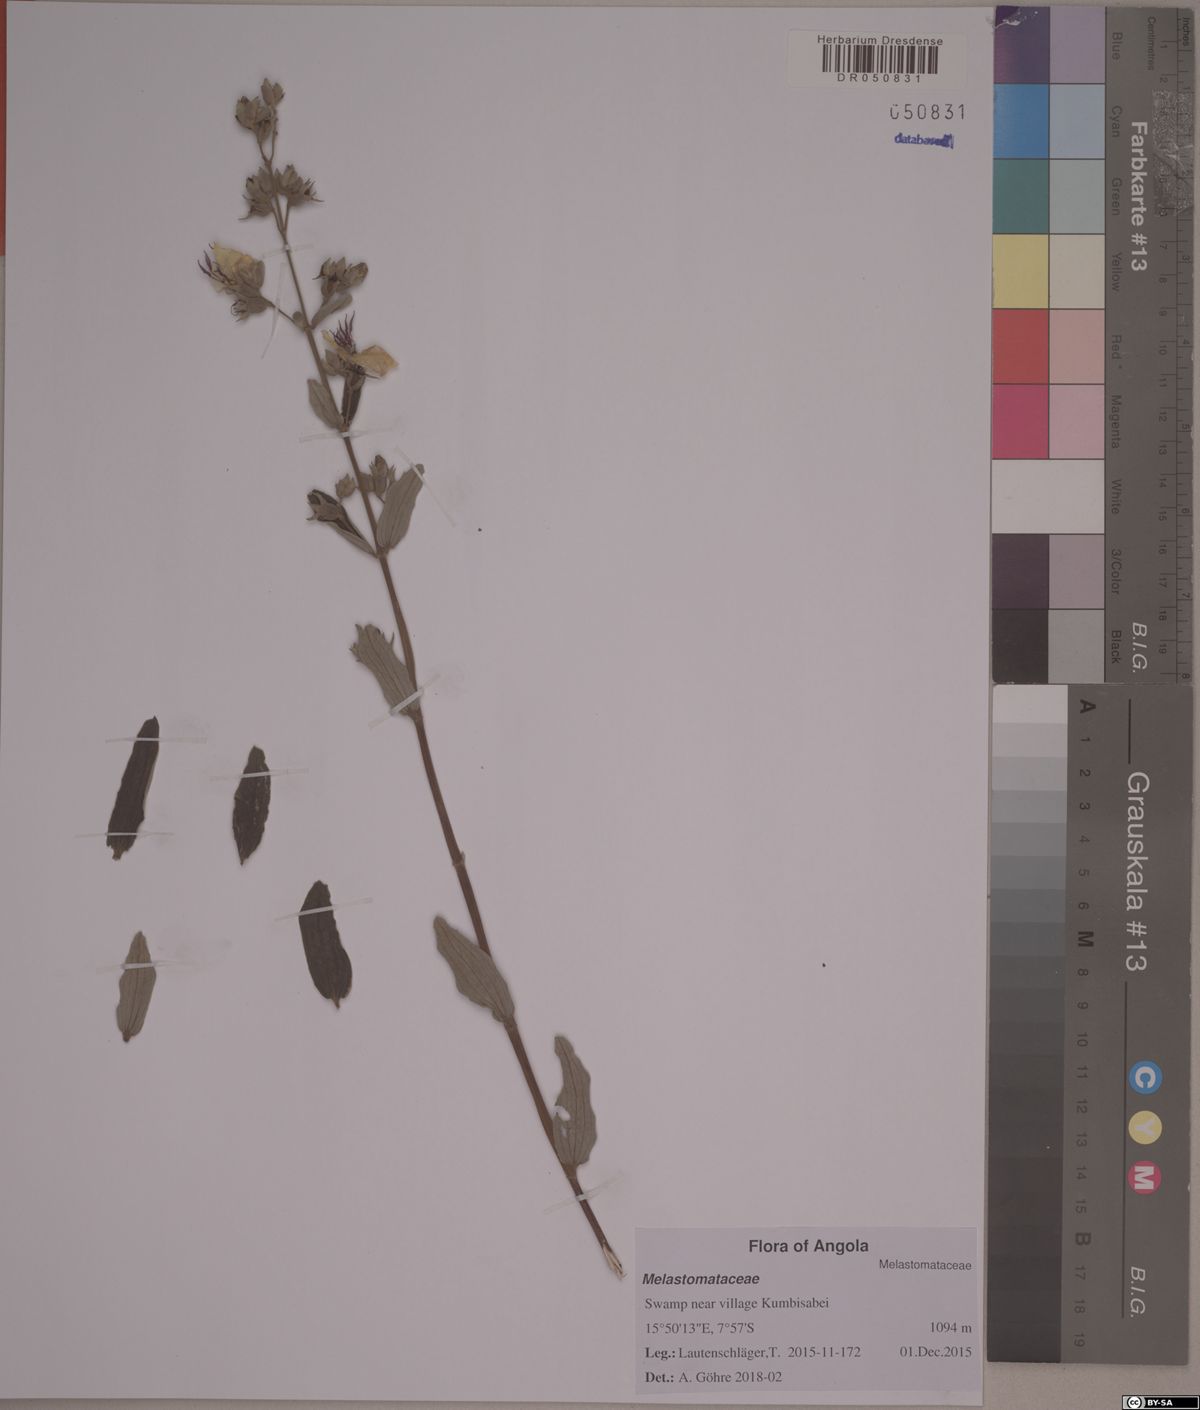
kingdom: Plantae
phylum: Tracheophyta
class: Magnoliopsida
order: Myrtales
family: Melastomataceae
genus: Argyrella
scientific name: Argyrella canescens
